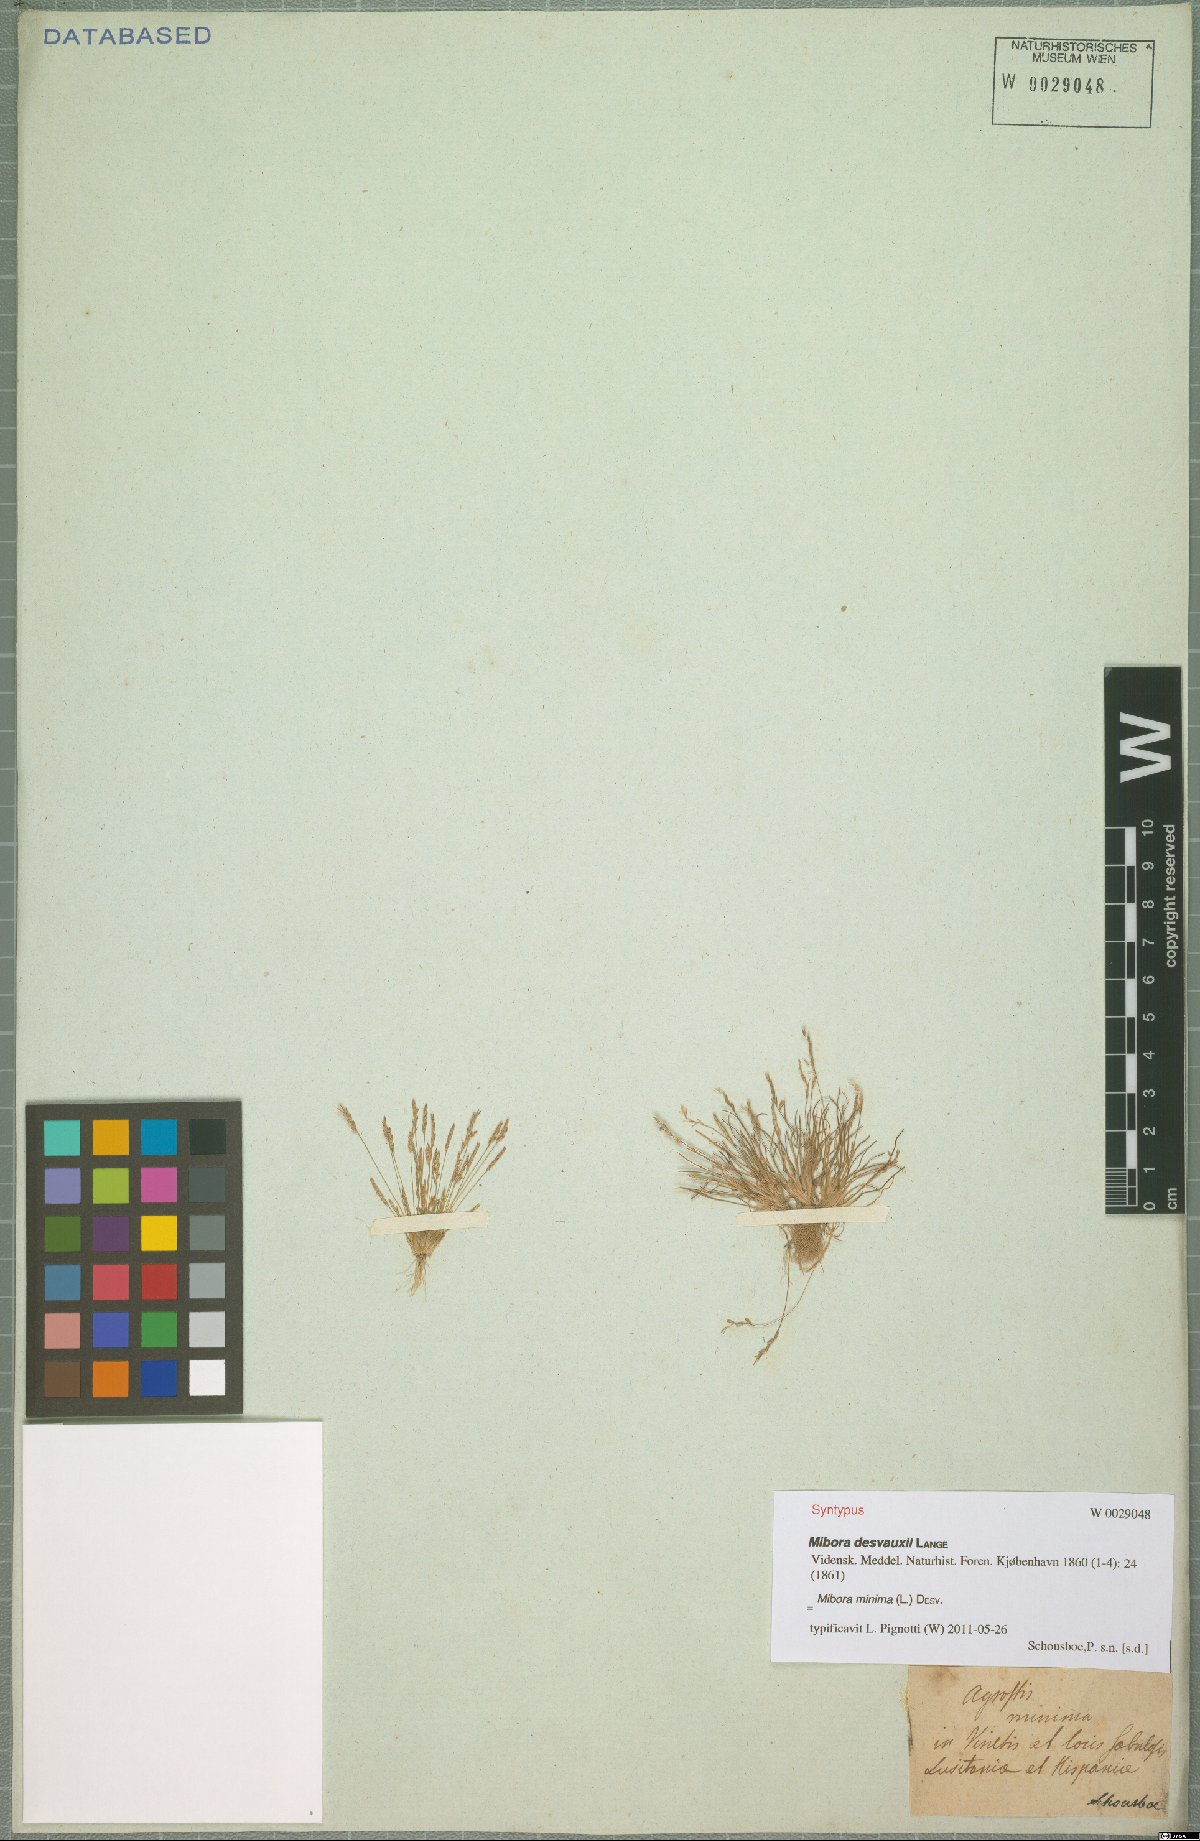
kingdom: Plantae
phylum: Tracheophyta
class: Liliopsida
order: Poales
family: Poaceae
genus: Mibora
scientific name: Mibora minima
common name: Early sand-grass
